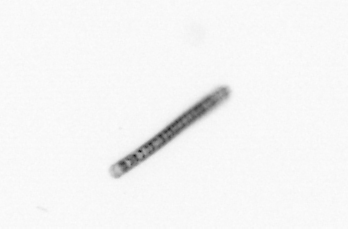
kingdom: Chromista
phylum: Ochrophyta
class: Bacillariophyceae
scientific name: Bacillariophyceae
